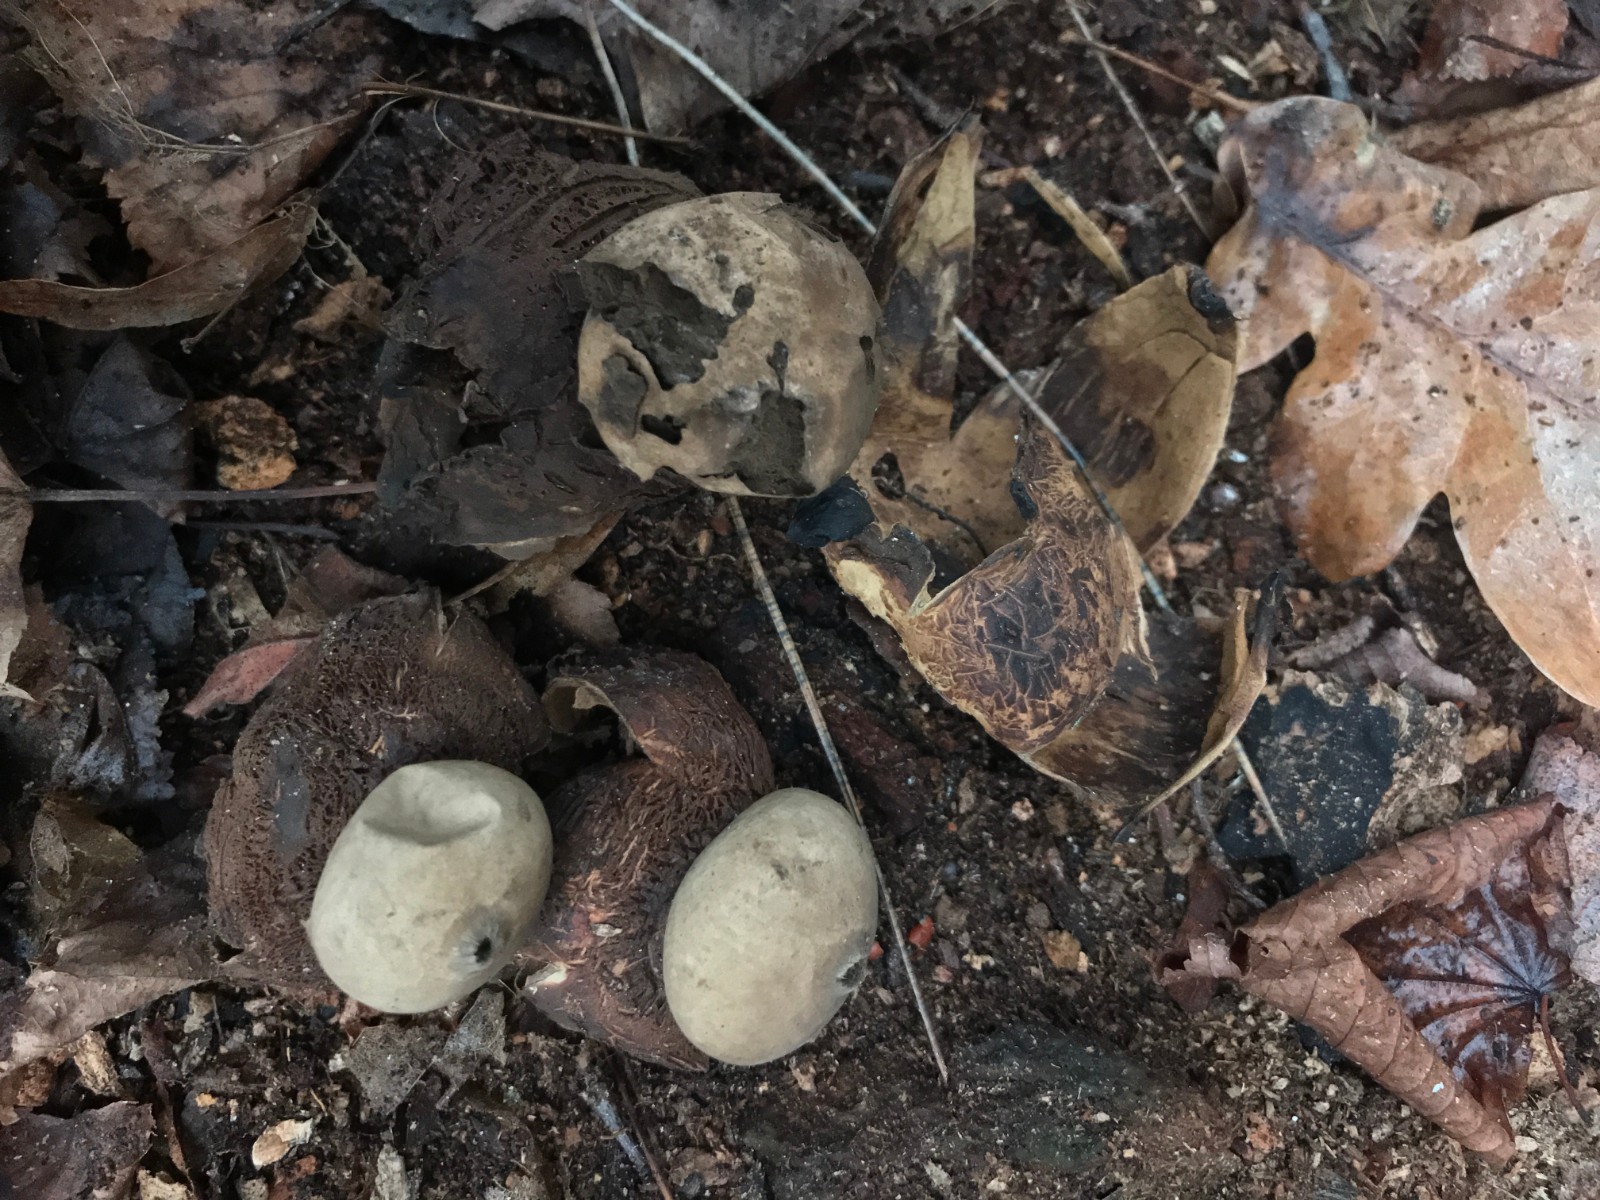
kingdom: Fungi
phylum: Basidiomycota
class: Agaricomycetes
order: Geastrales
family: Geastraceae
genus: Geastrum
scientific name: Geastrum
